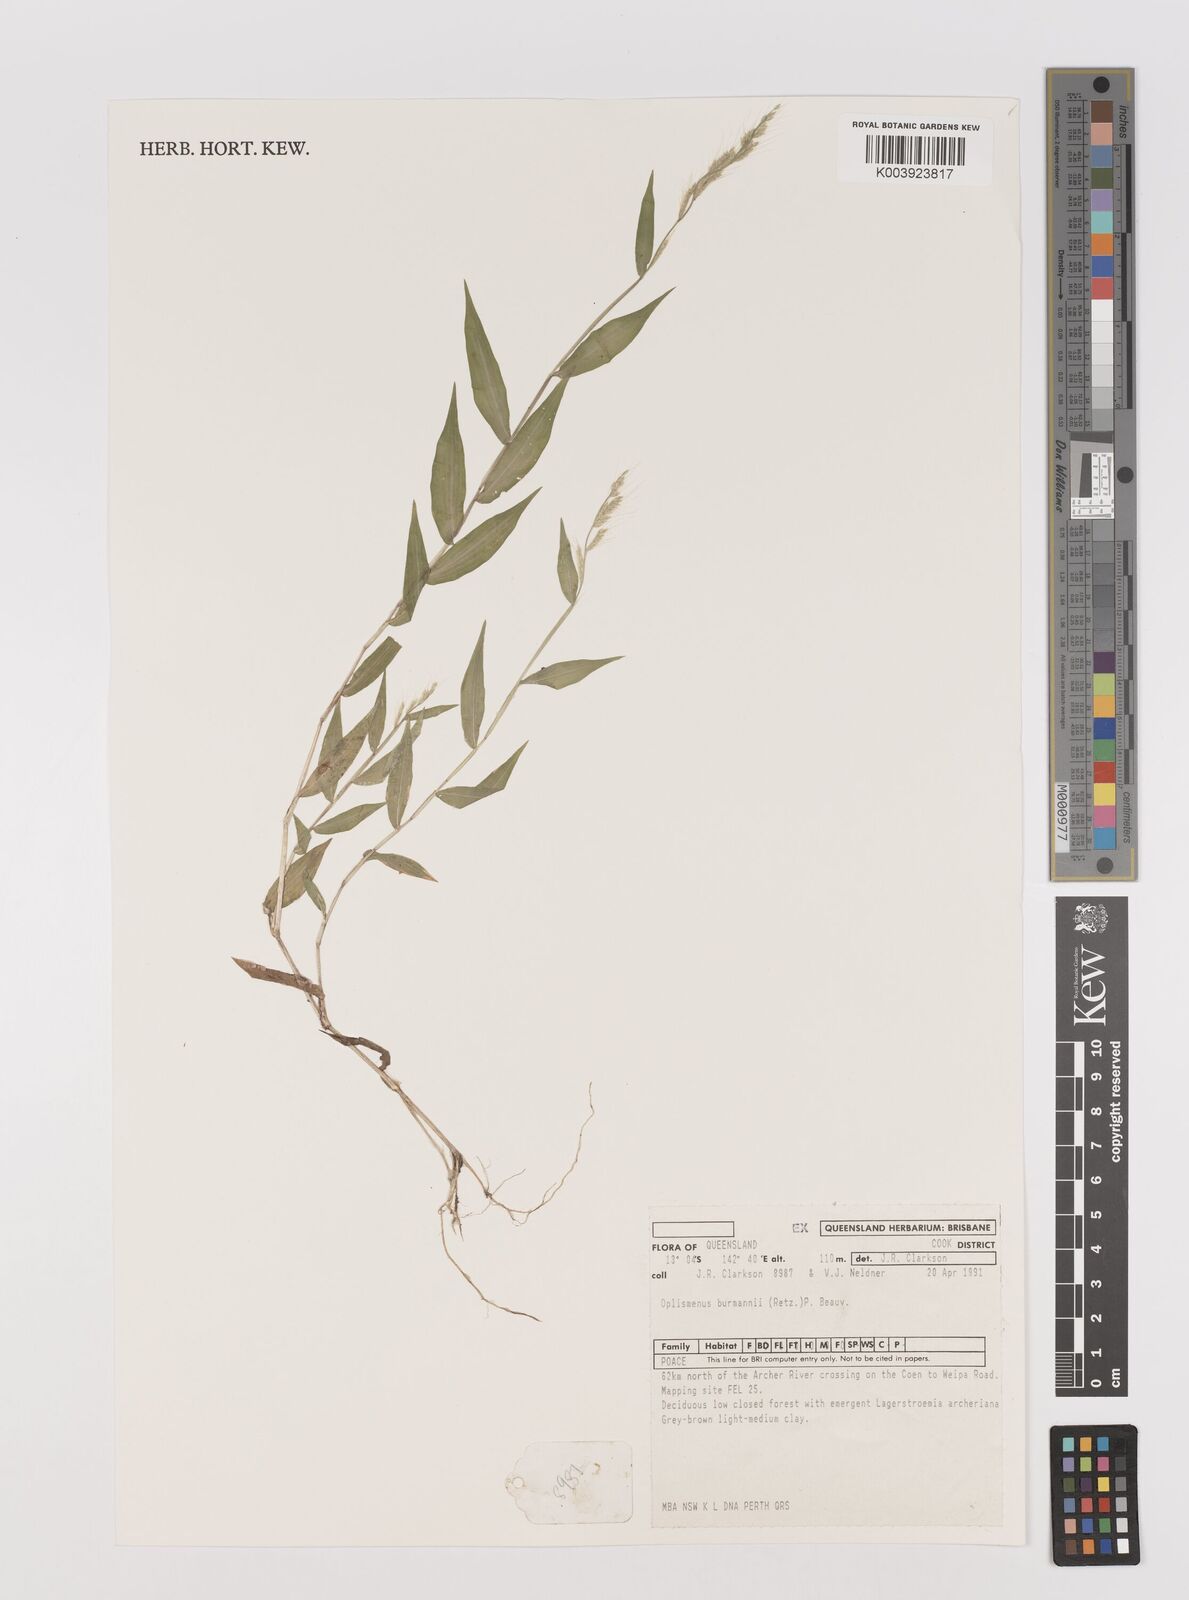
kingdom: Plantae
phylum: Tracheophyta
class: Liliopsida
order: Poales
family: Poaceae
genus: Oplismenus
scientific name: Oplismenus burmanni
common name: Burmann's basketgrass
